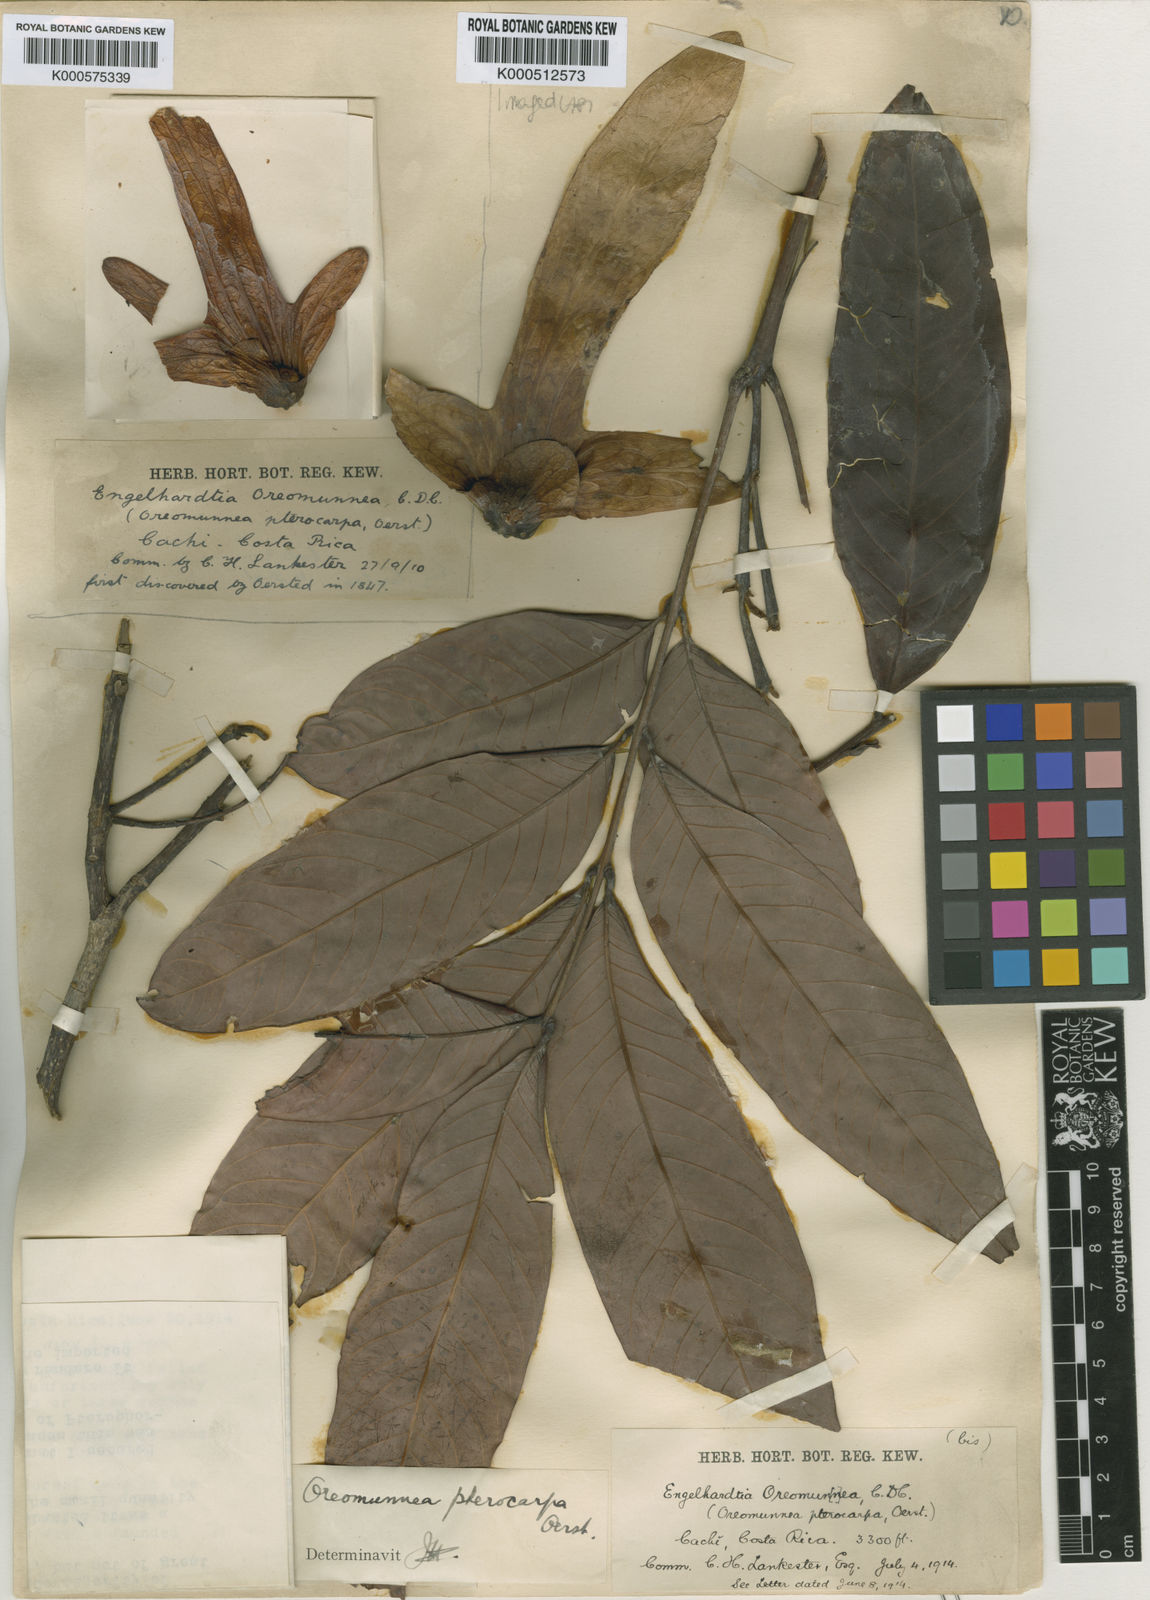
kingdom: Plantae
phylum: Tracheophyta
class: Magnoliopsida
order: Fagales
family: Juglandaceae
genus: Alfaroa
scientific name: Alfaroa costaricensis
